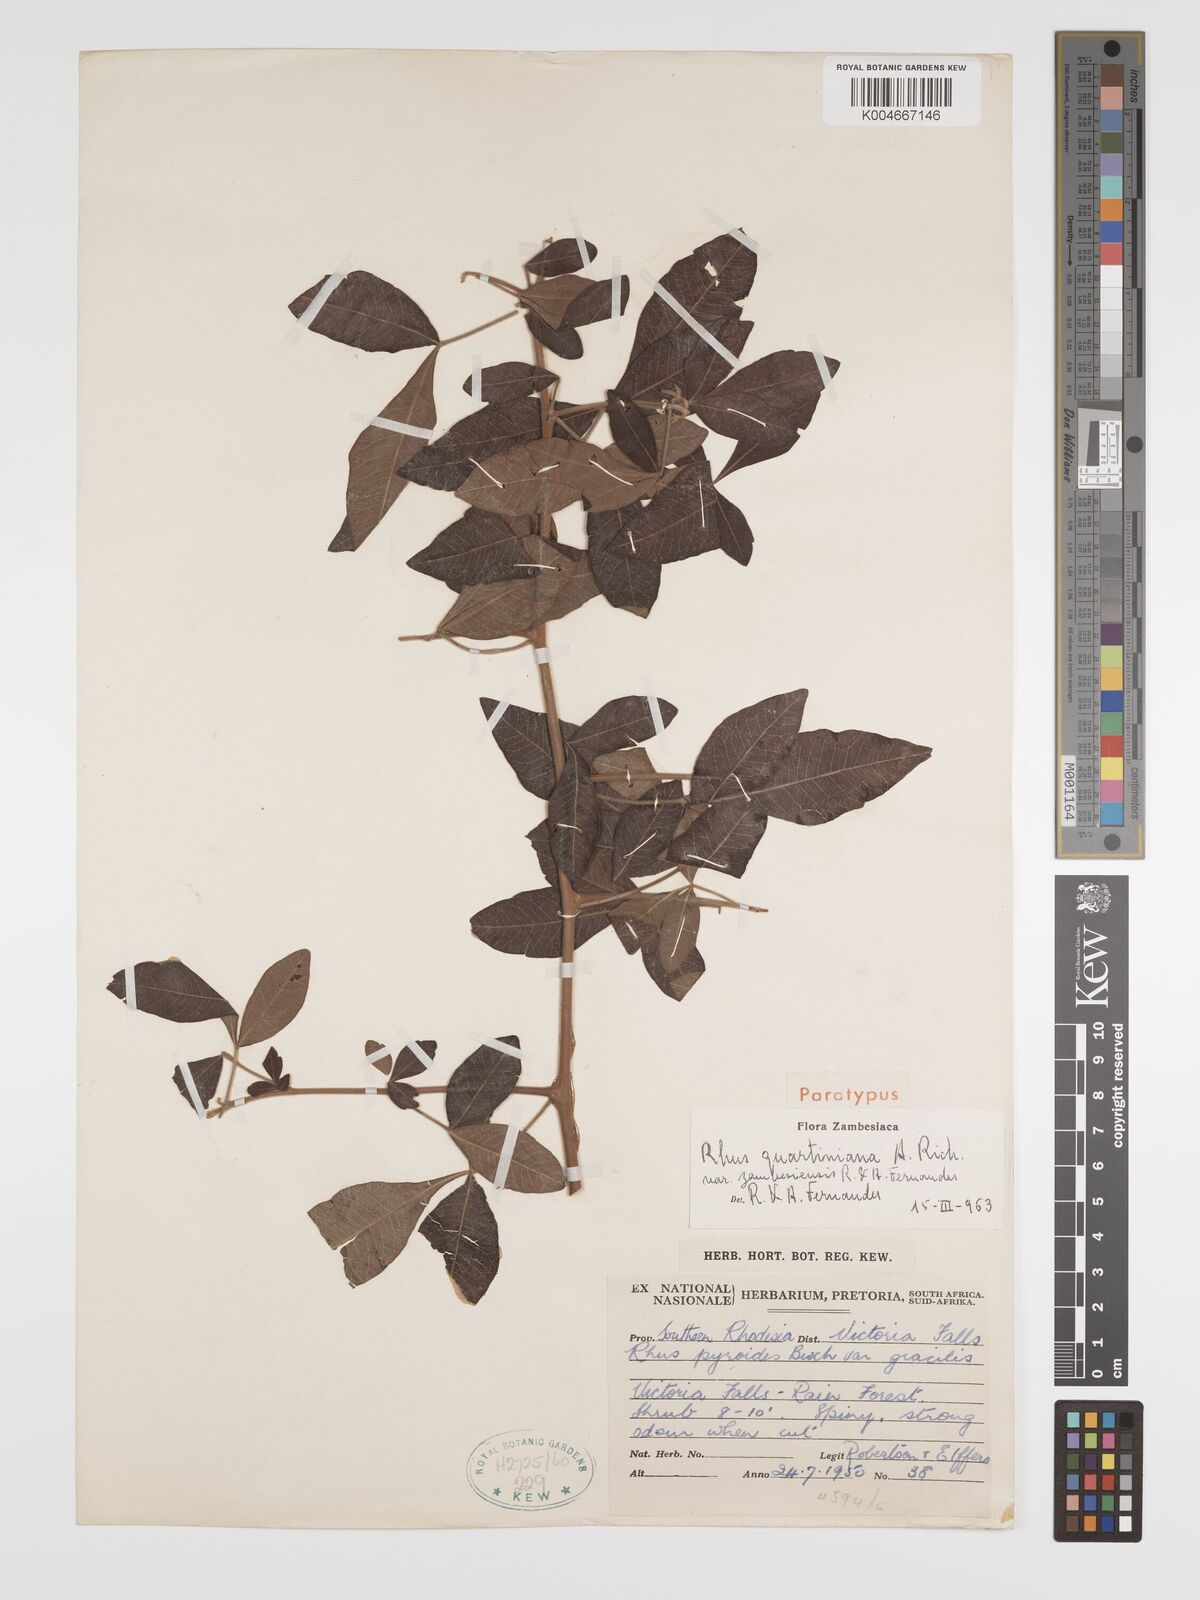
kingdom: Plantae
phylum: Tracheophyta
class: Magnoliopsida
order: Sapindales
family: Anacardiaceae
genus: Searsia
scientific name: Searsia quartiniana
